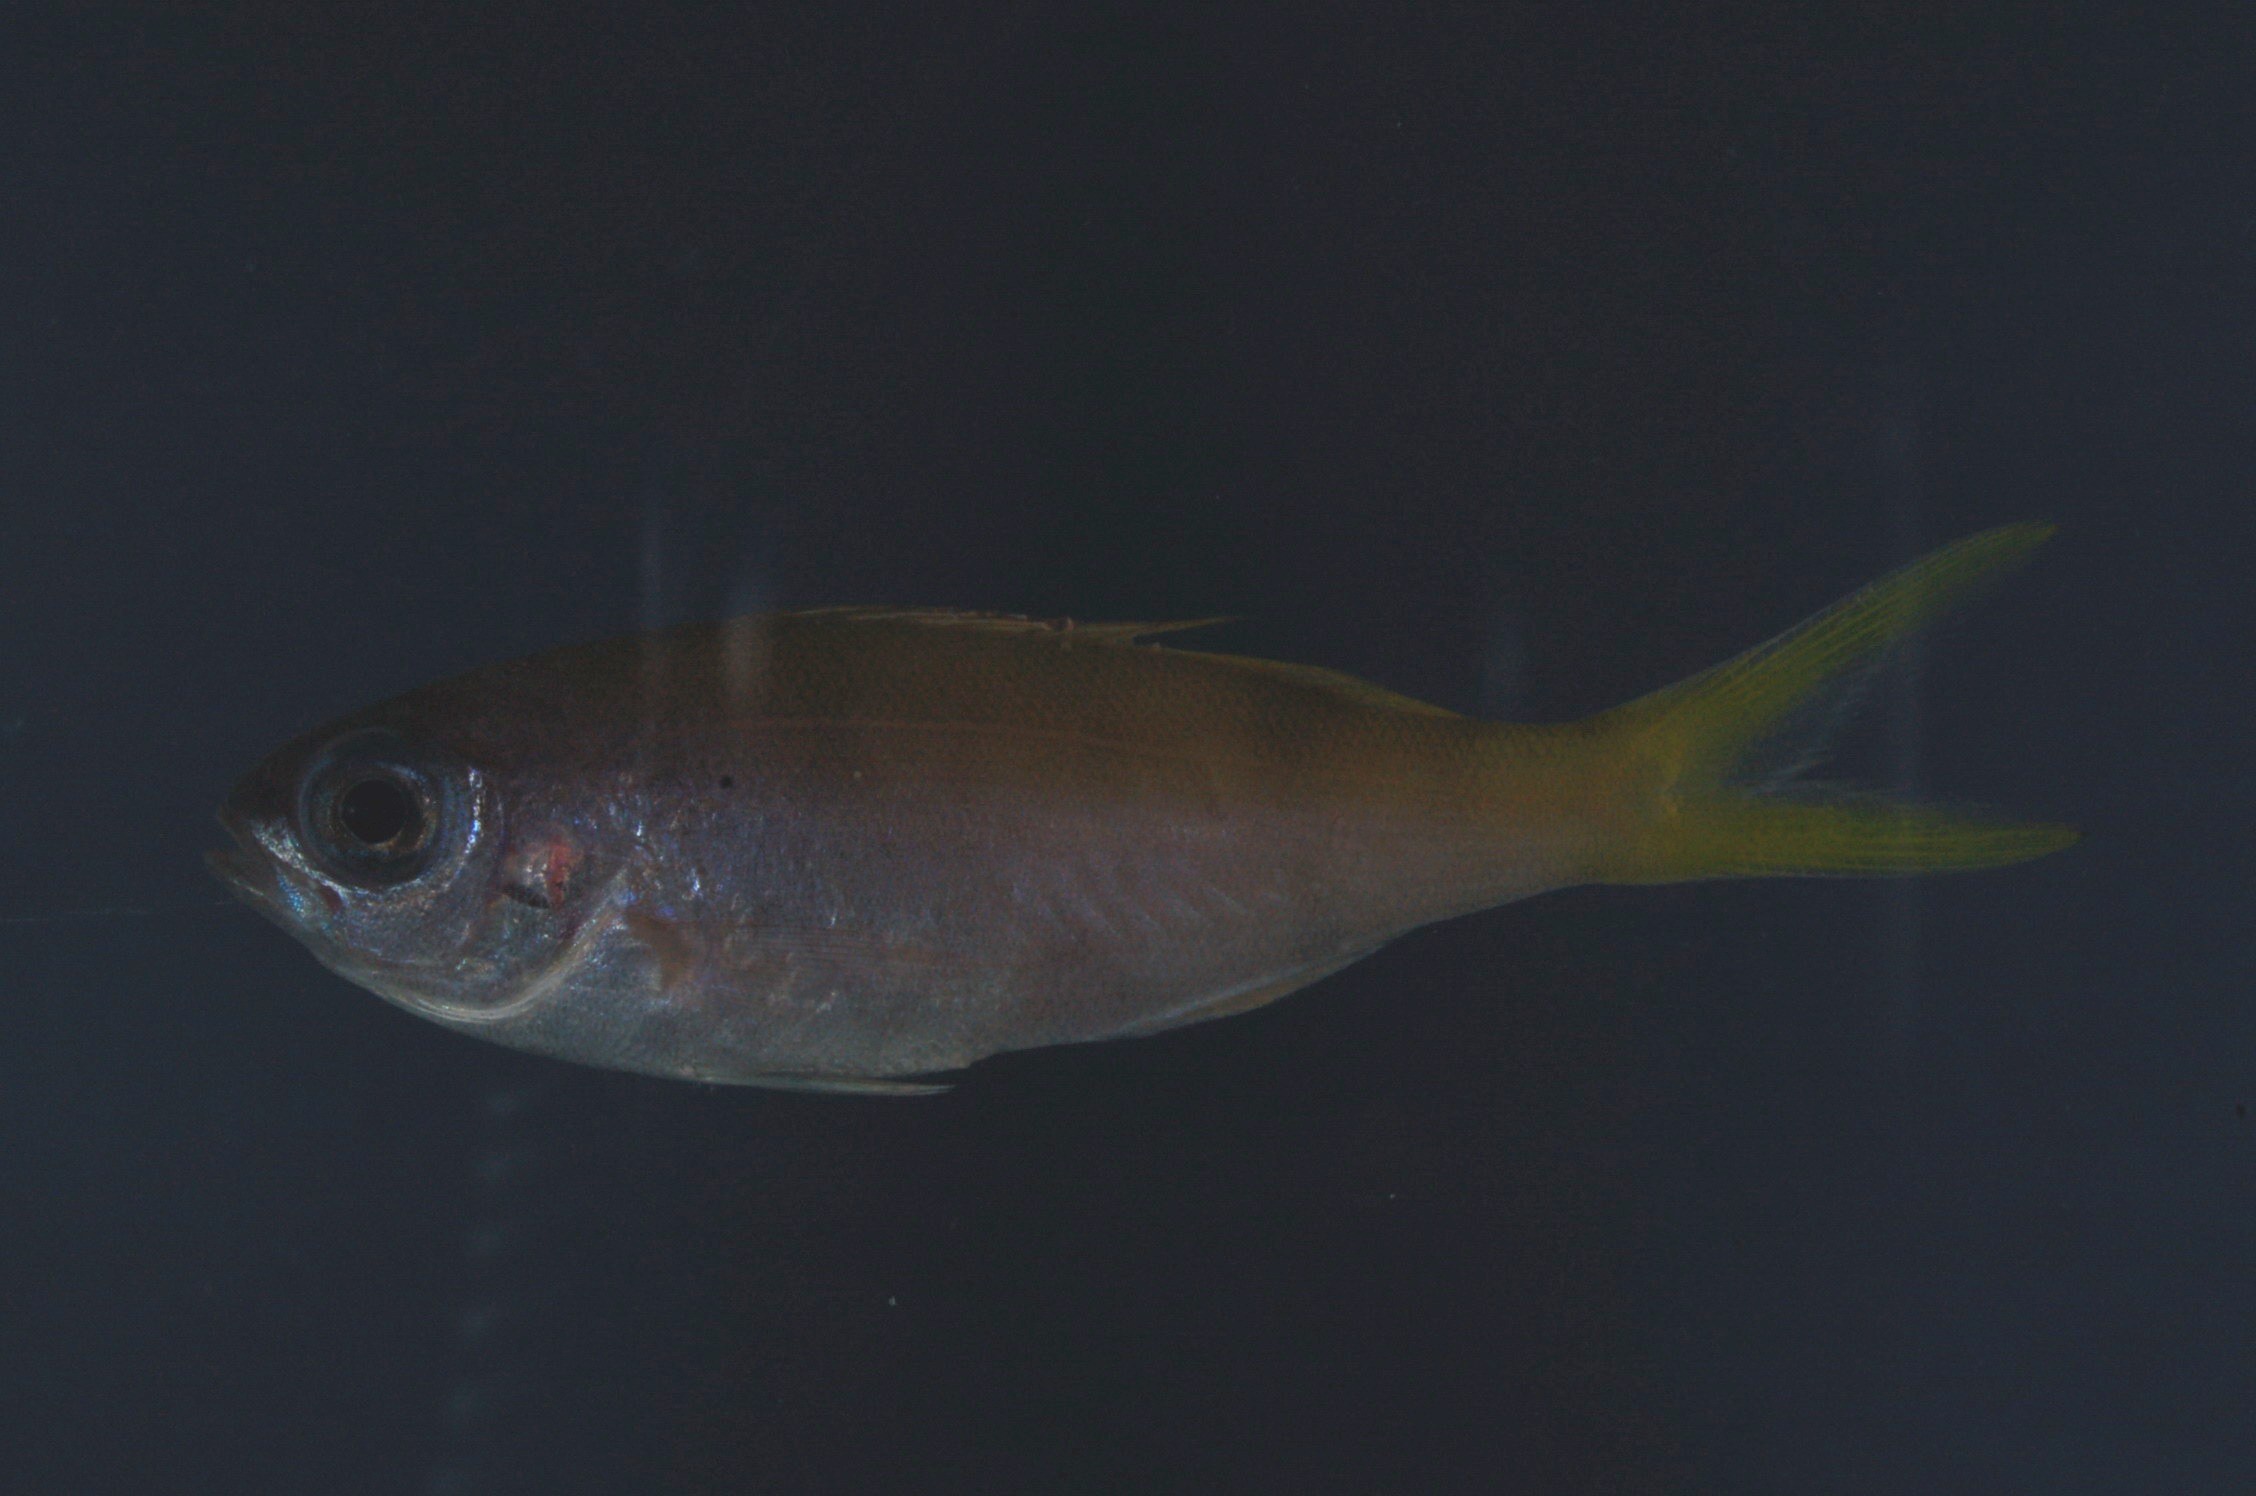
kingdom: Animalia
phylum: Chordata
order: Perciformes
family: Lutjanidae
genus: Paracaesio
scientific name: Paracaesio xanthura
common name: Yellowtail blue snapper
